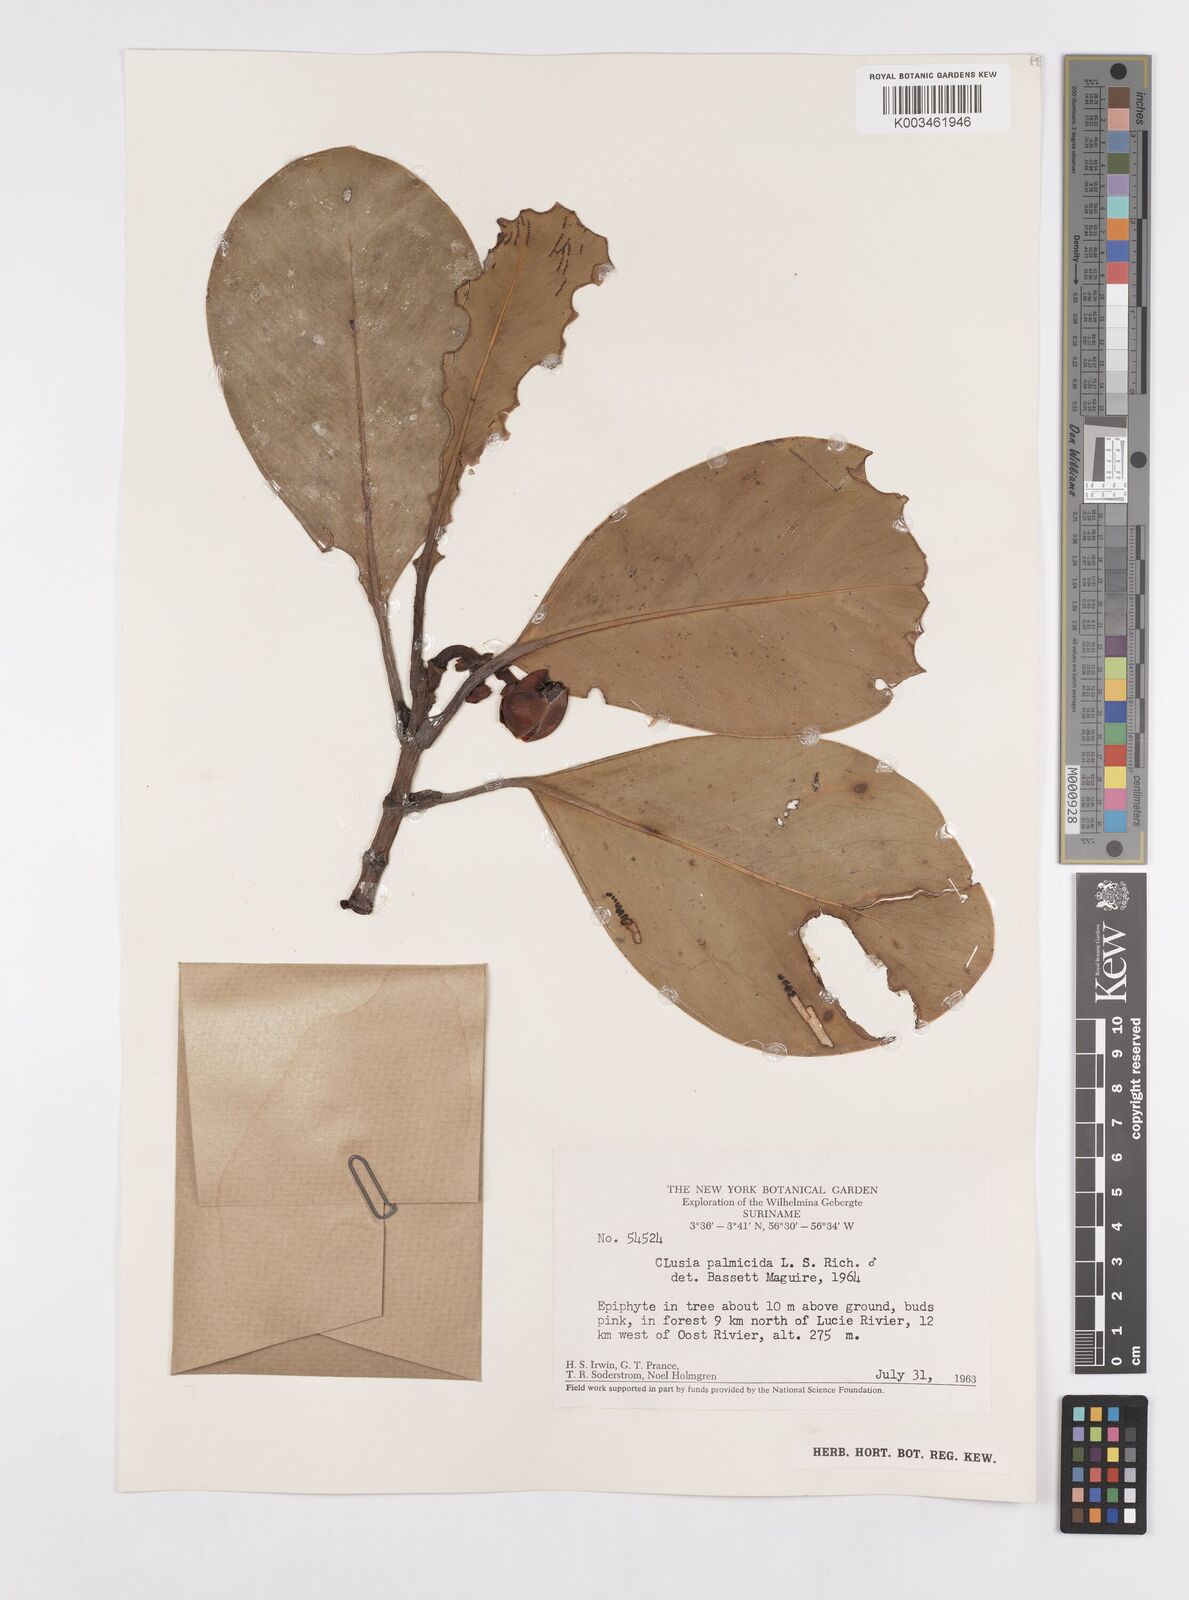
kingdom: Plantae
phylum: Tracheophyta
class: Magnoliopsida
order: Malpighiales
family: Clusiaceae
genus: Clusia
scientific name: Clusia palmicida
